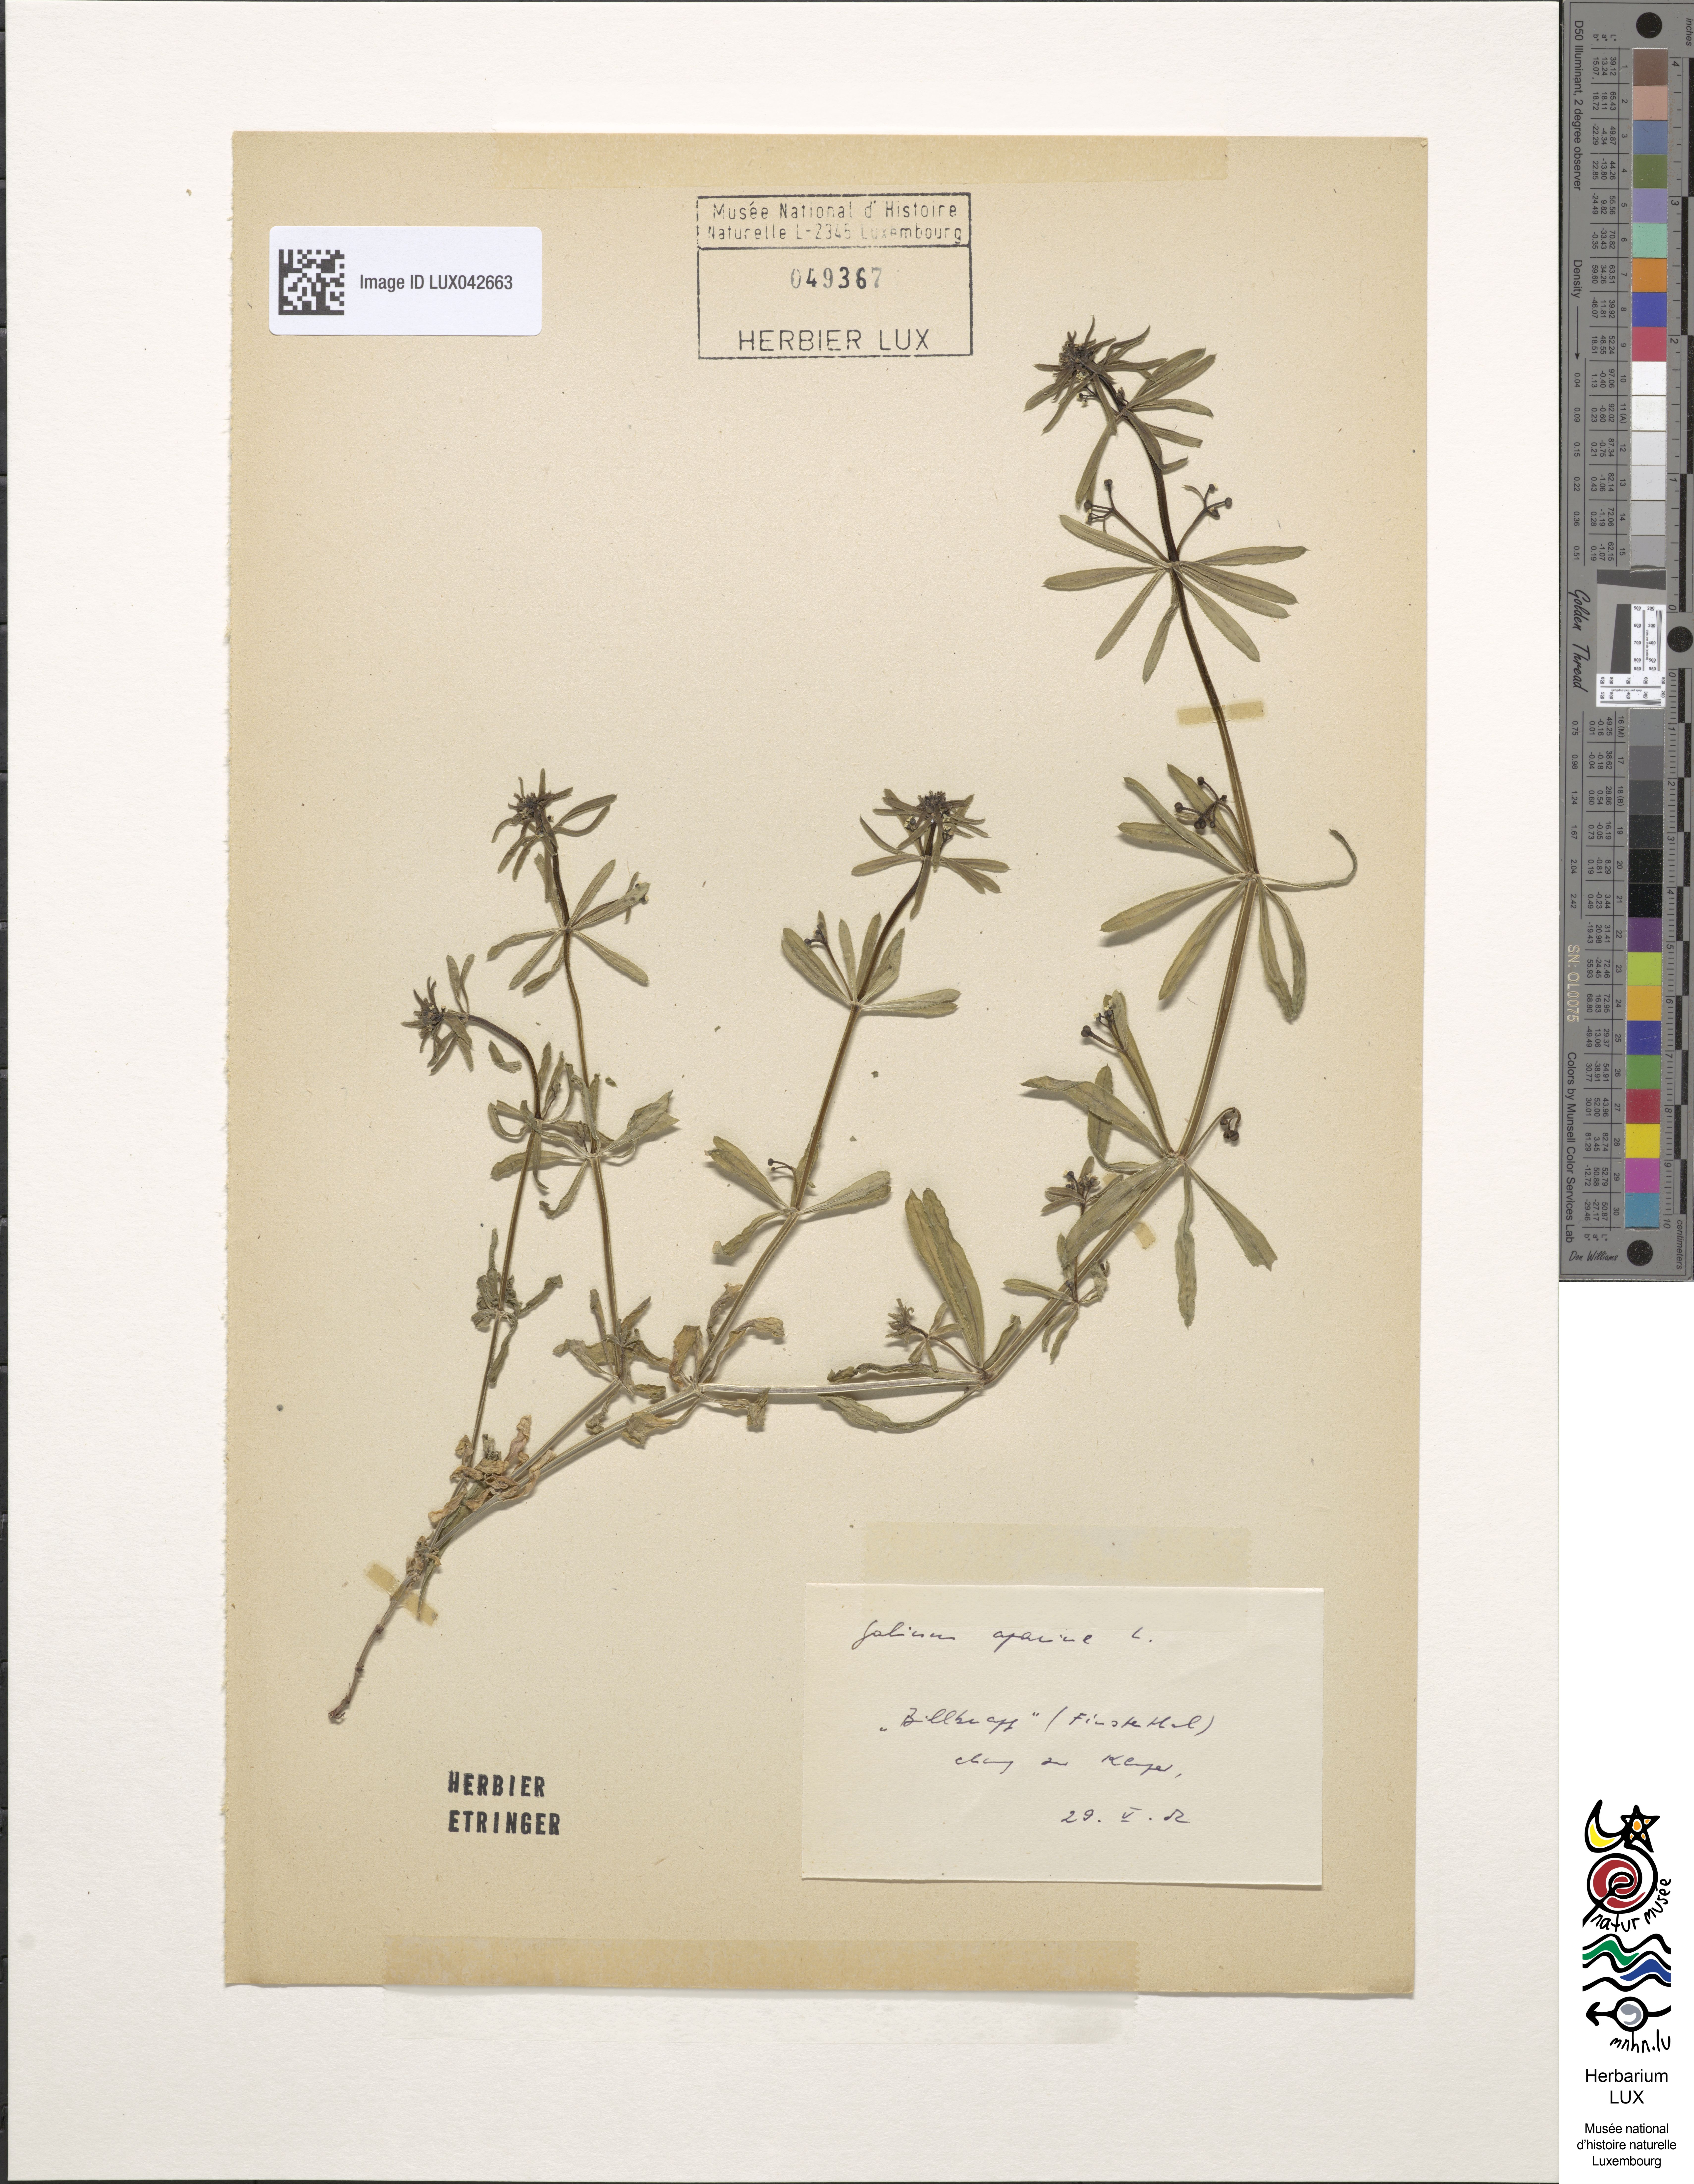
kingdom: Plantae
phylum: Tracheophyta
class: Magnoliopsida
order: Gentianales
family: Rubiaceae
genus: Galium
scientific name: Galium aparine
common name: Cleavers
